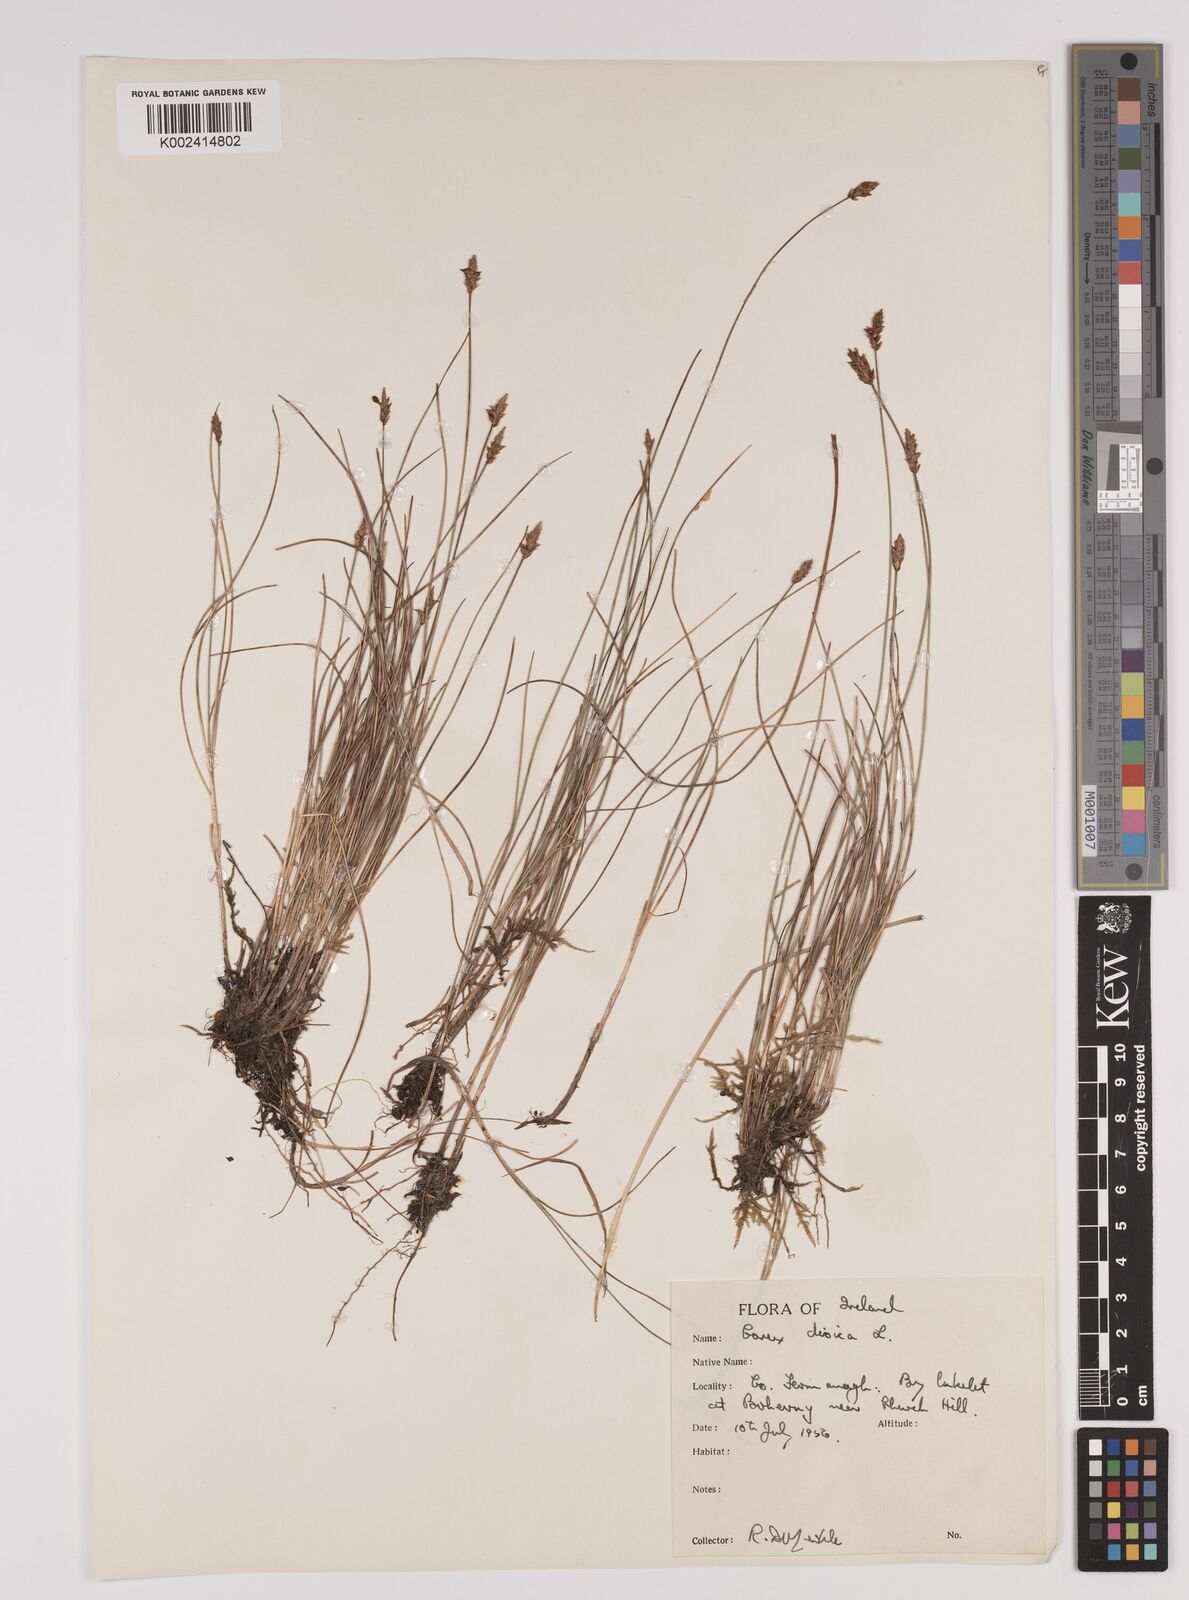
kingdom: Plantae
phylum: Tracheophyta
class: Liliopsida
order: Poales
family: Cyperaceae
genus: Carex
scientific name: Carex dioica
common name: Dioecious sedge
